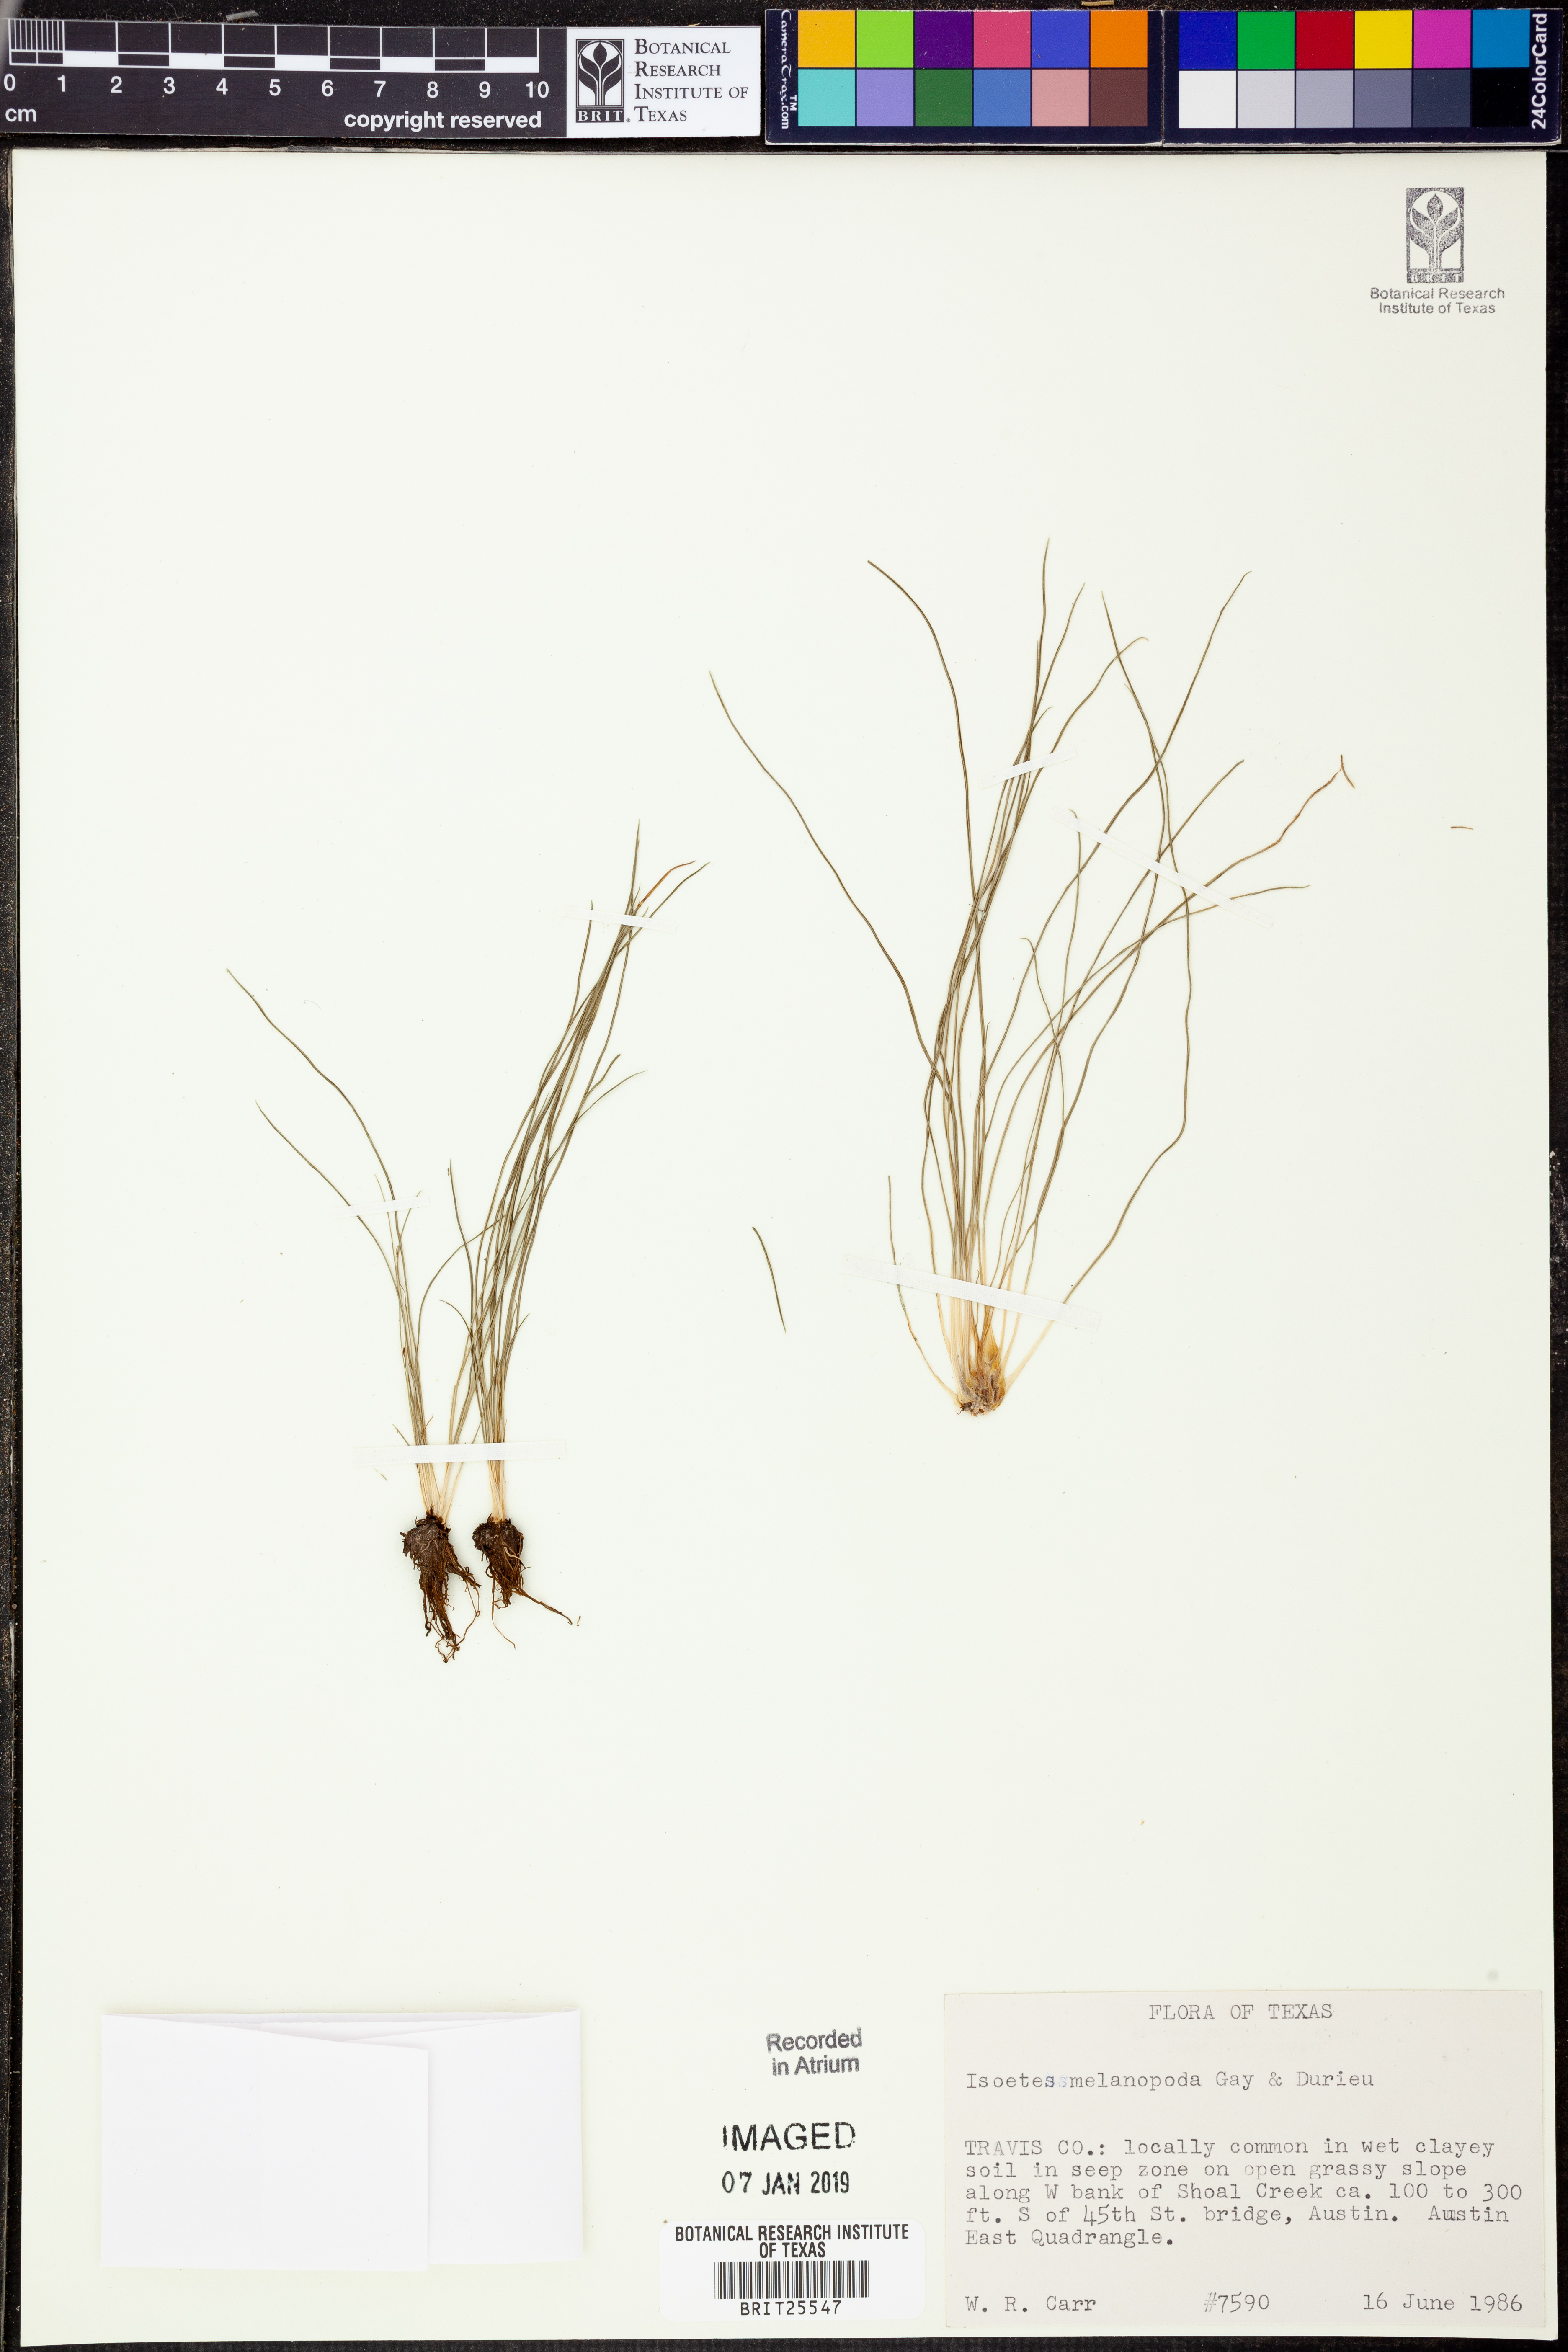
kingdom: Plantae
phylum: Tracheophyta
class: Lycopodiopsida
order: Isoetales
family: Isoetaceae
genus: Isoetes
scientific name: Isoetes melanopoda
